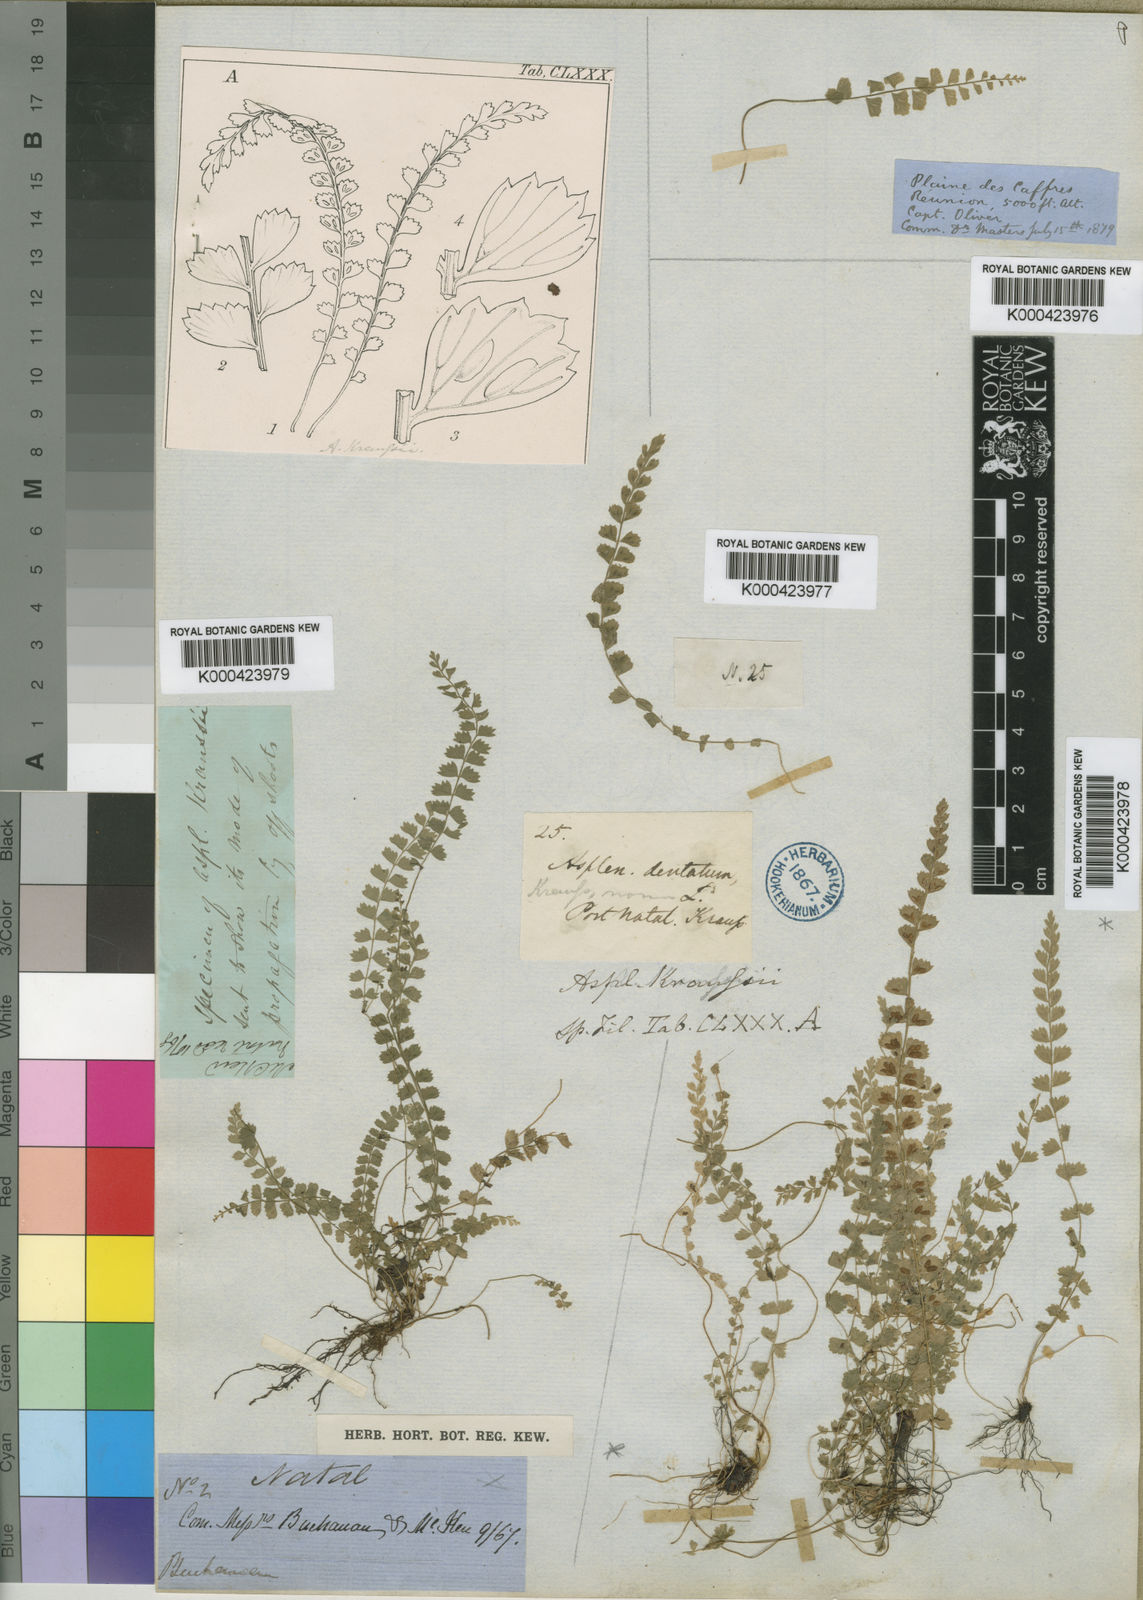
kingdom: Plantae
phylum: Tracheophyta
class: Polypodiopsida
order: Polypodiales
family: Aspleniaceae
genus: Asplenium
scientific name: Asplenium stoloniferum
